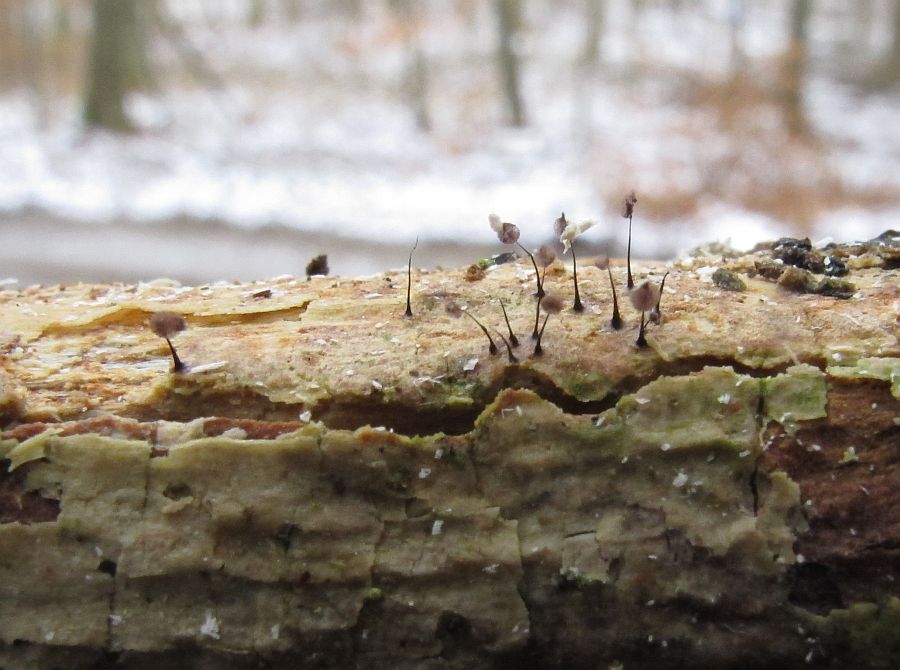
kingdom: Protozoa
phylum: Mycetozoa
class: Myxomycetes
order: Stemonitidales
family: Stemonitidaceae
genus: Comatricha
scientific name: Comatricha nigra
